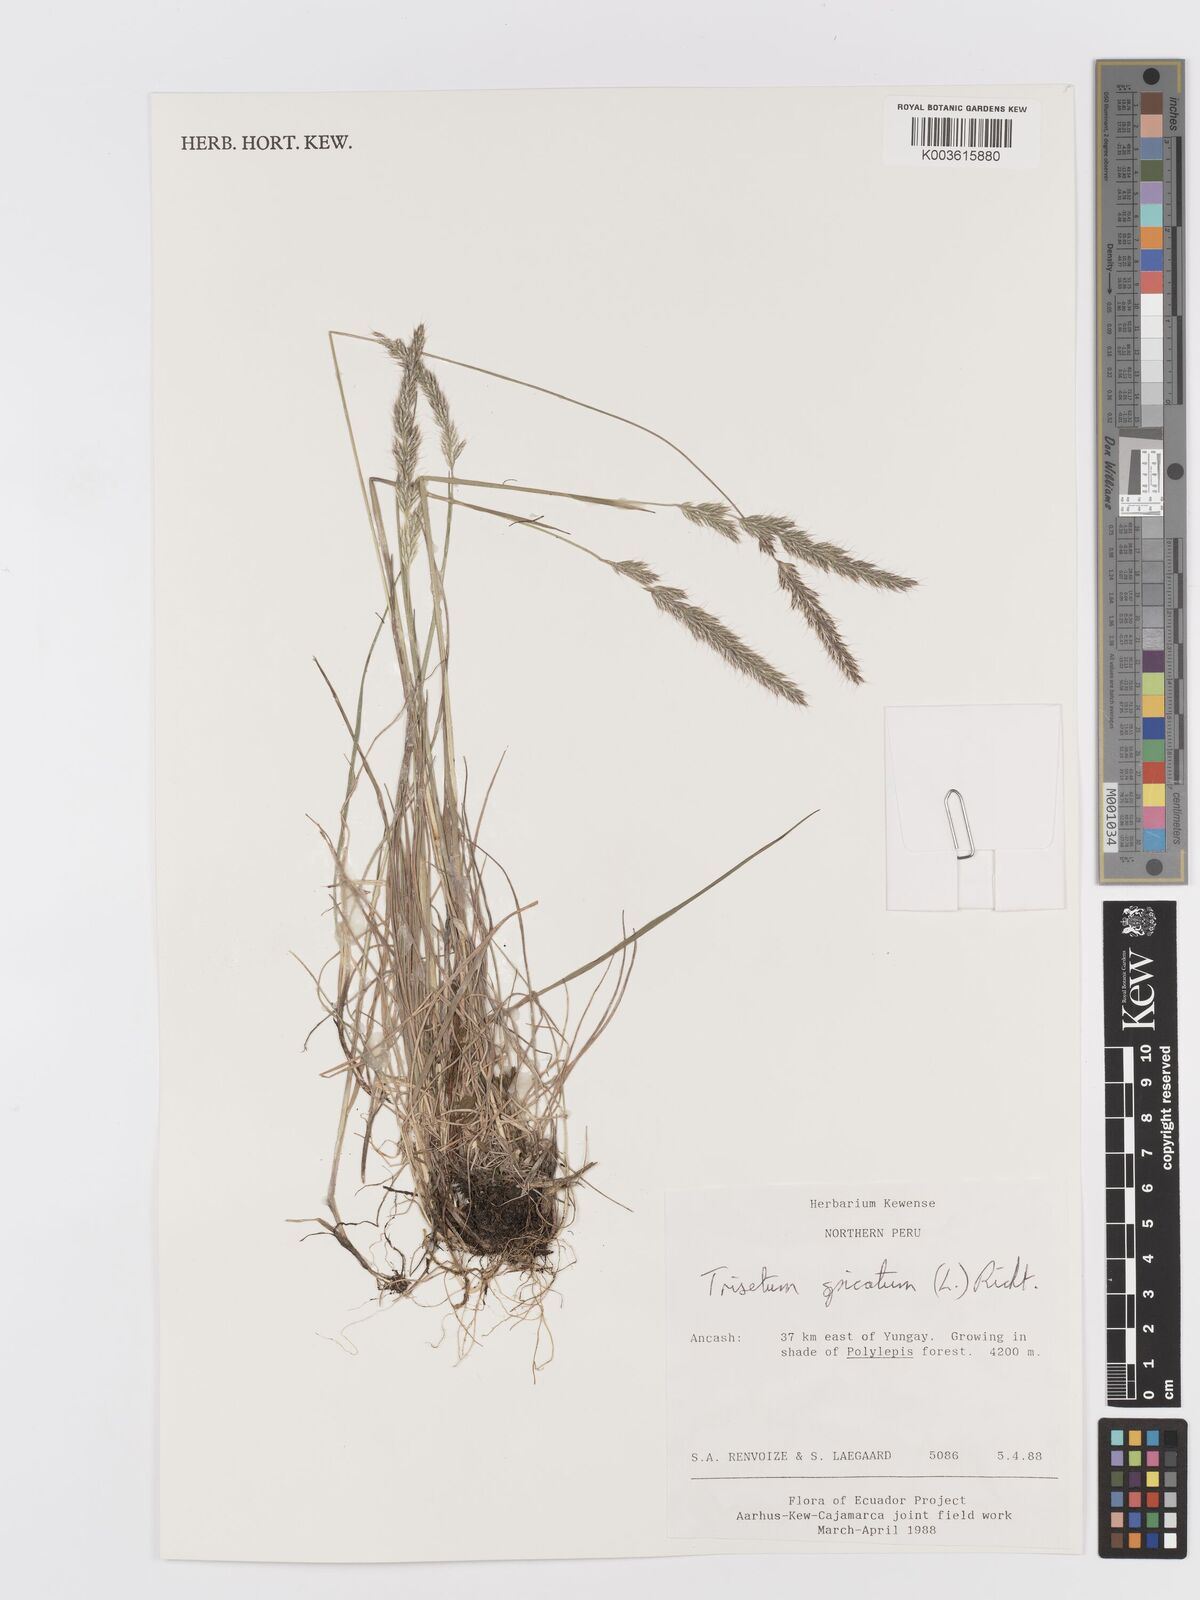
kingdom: Plantae
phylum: Tracheophyta
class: Liliopsida
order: Poales
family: Poaceae
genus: Koeleria
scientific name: Koeleria spicata
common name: Mountain trisetum
